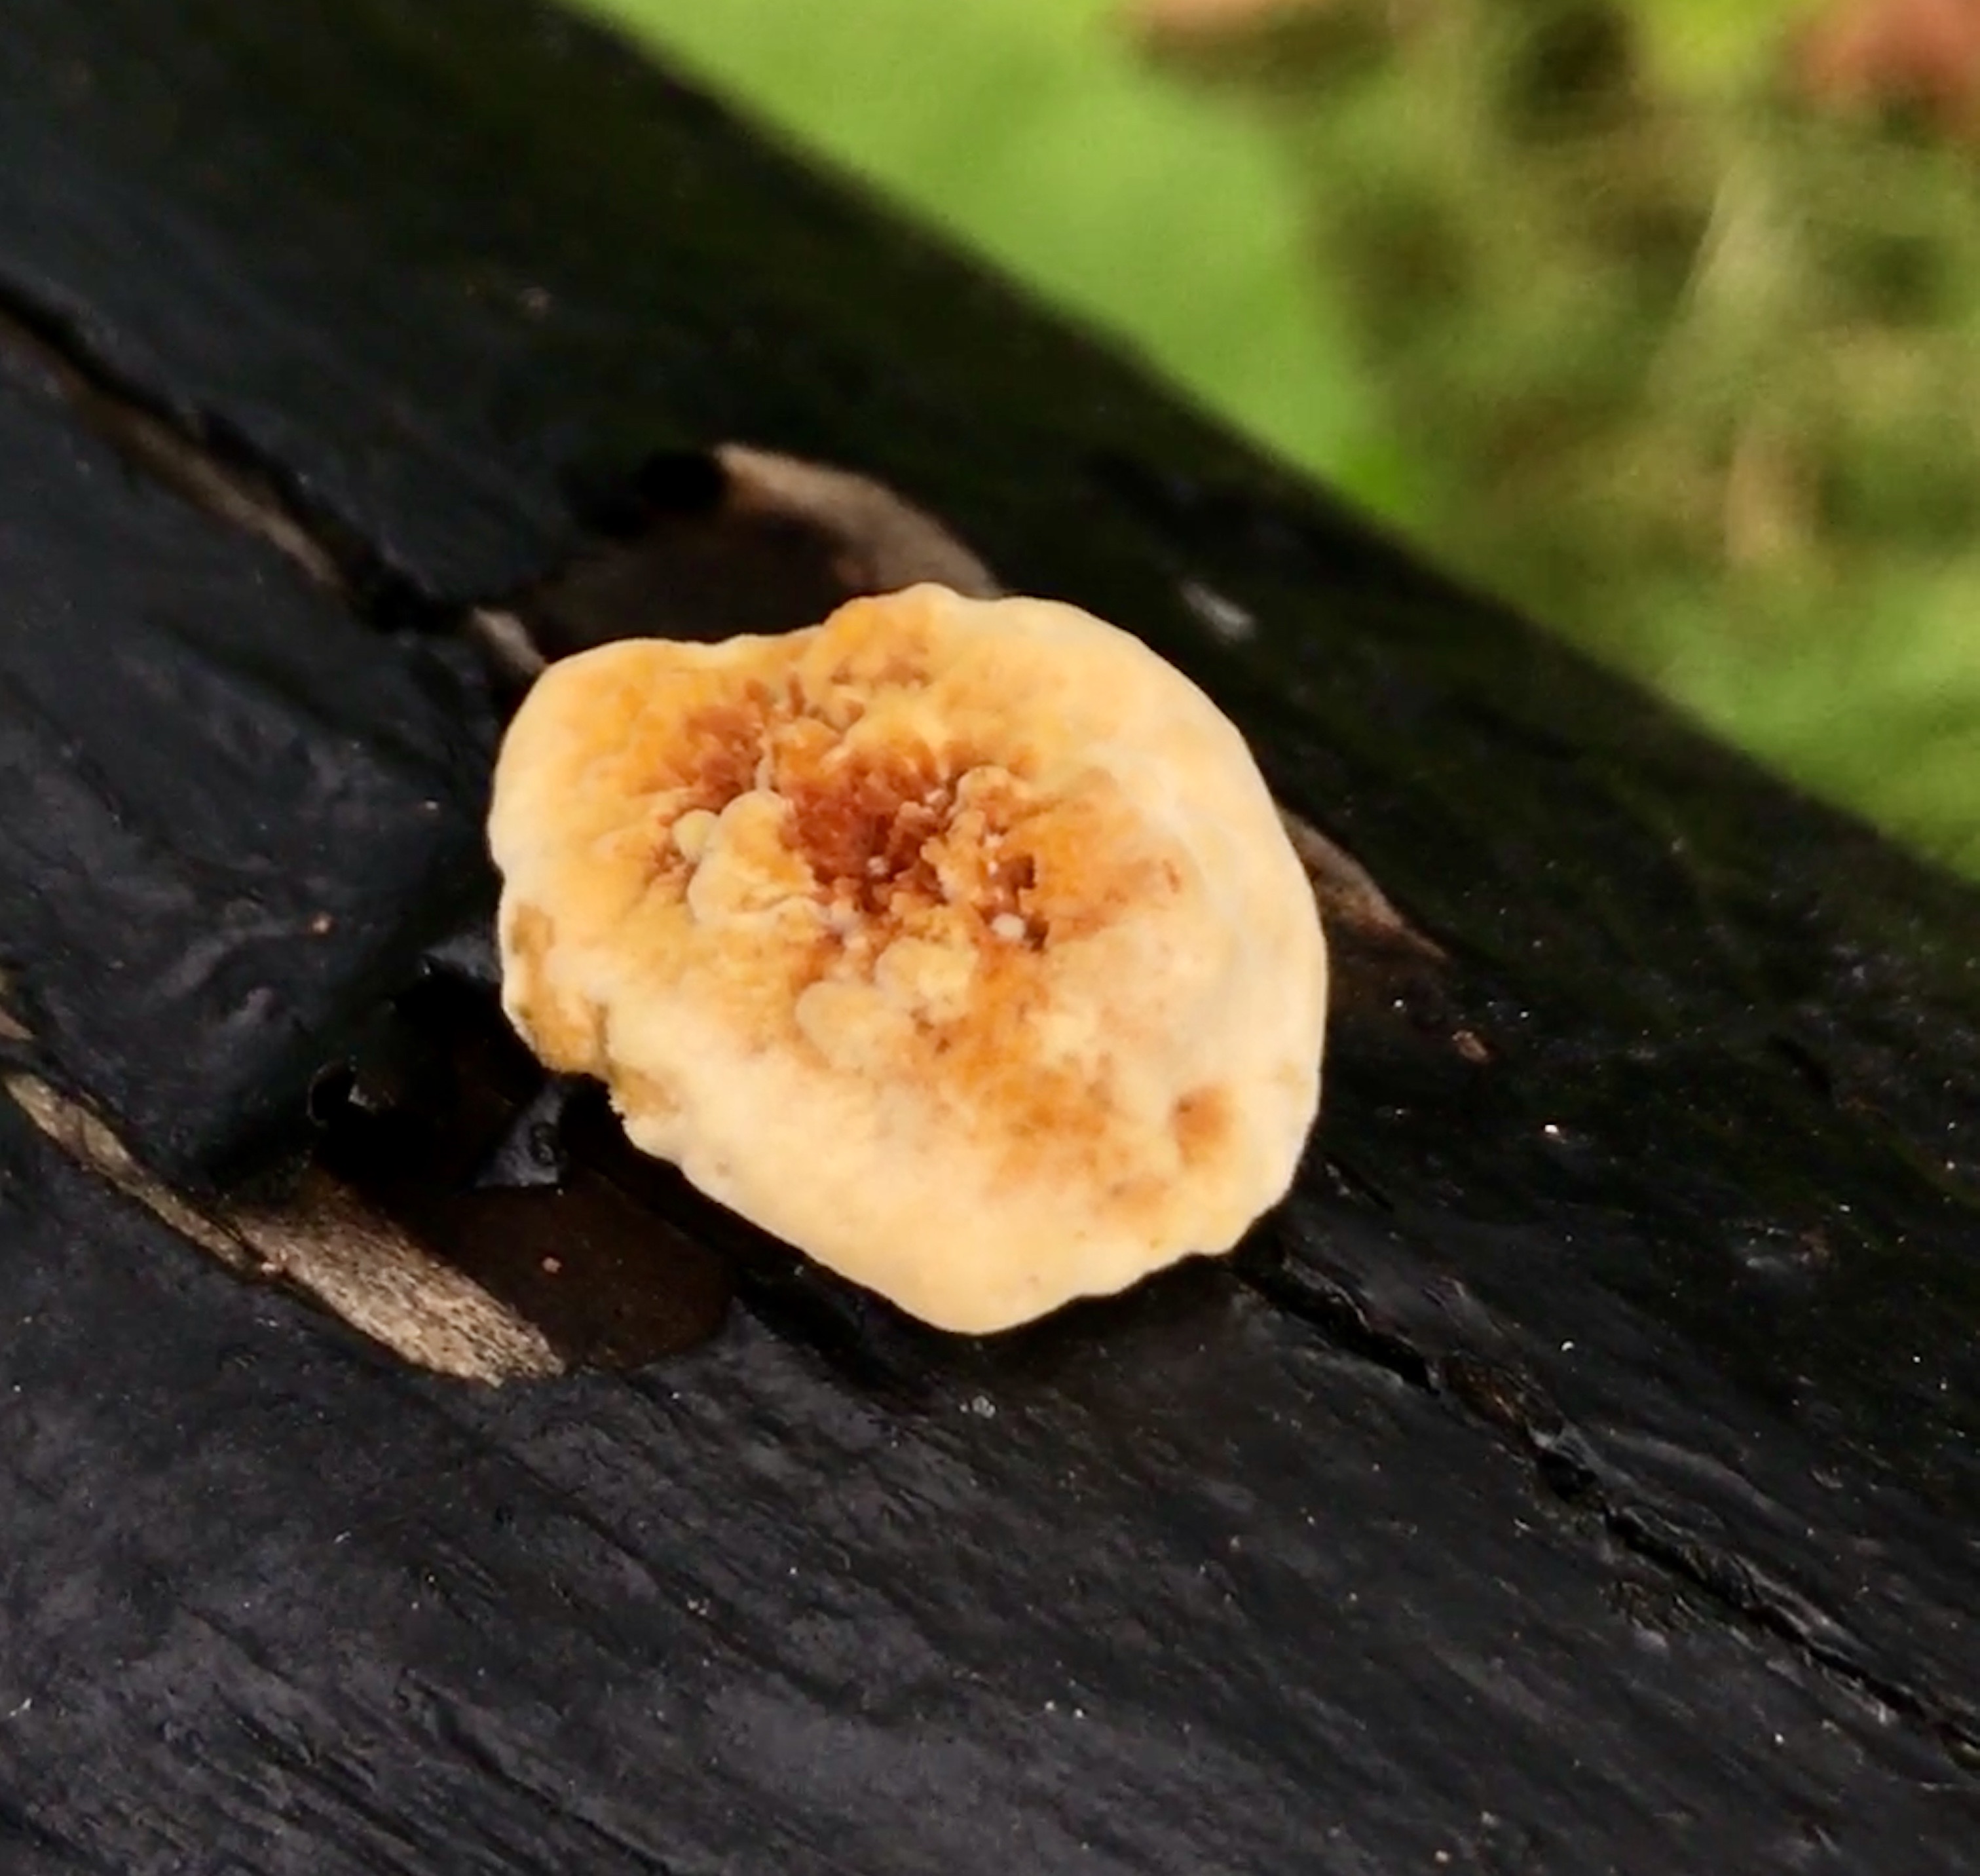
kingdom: Fungi
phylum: Basidiomycota
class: Agaricomycetes
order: Polyporales
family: Polyporaceae
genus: Daedaleopsis
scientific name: Daedaleopsis confragosa
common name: rødmende læderporesvamp
